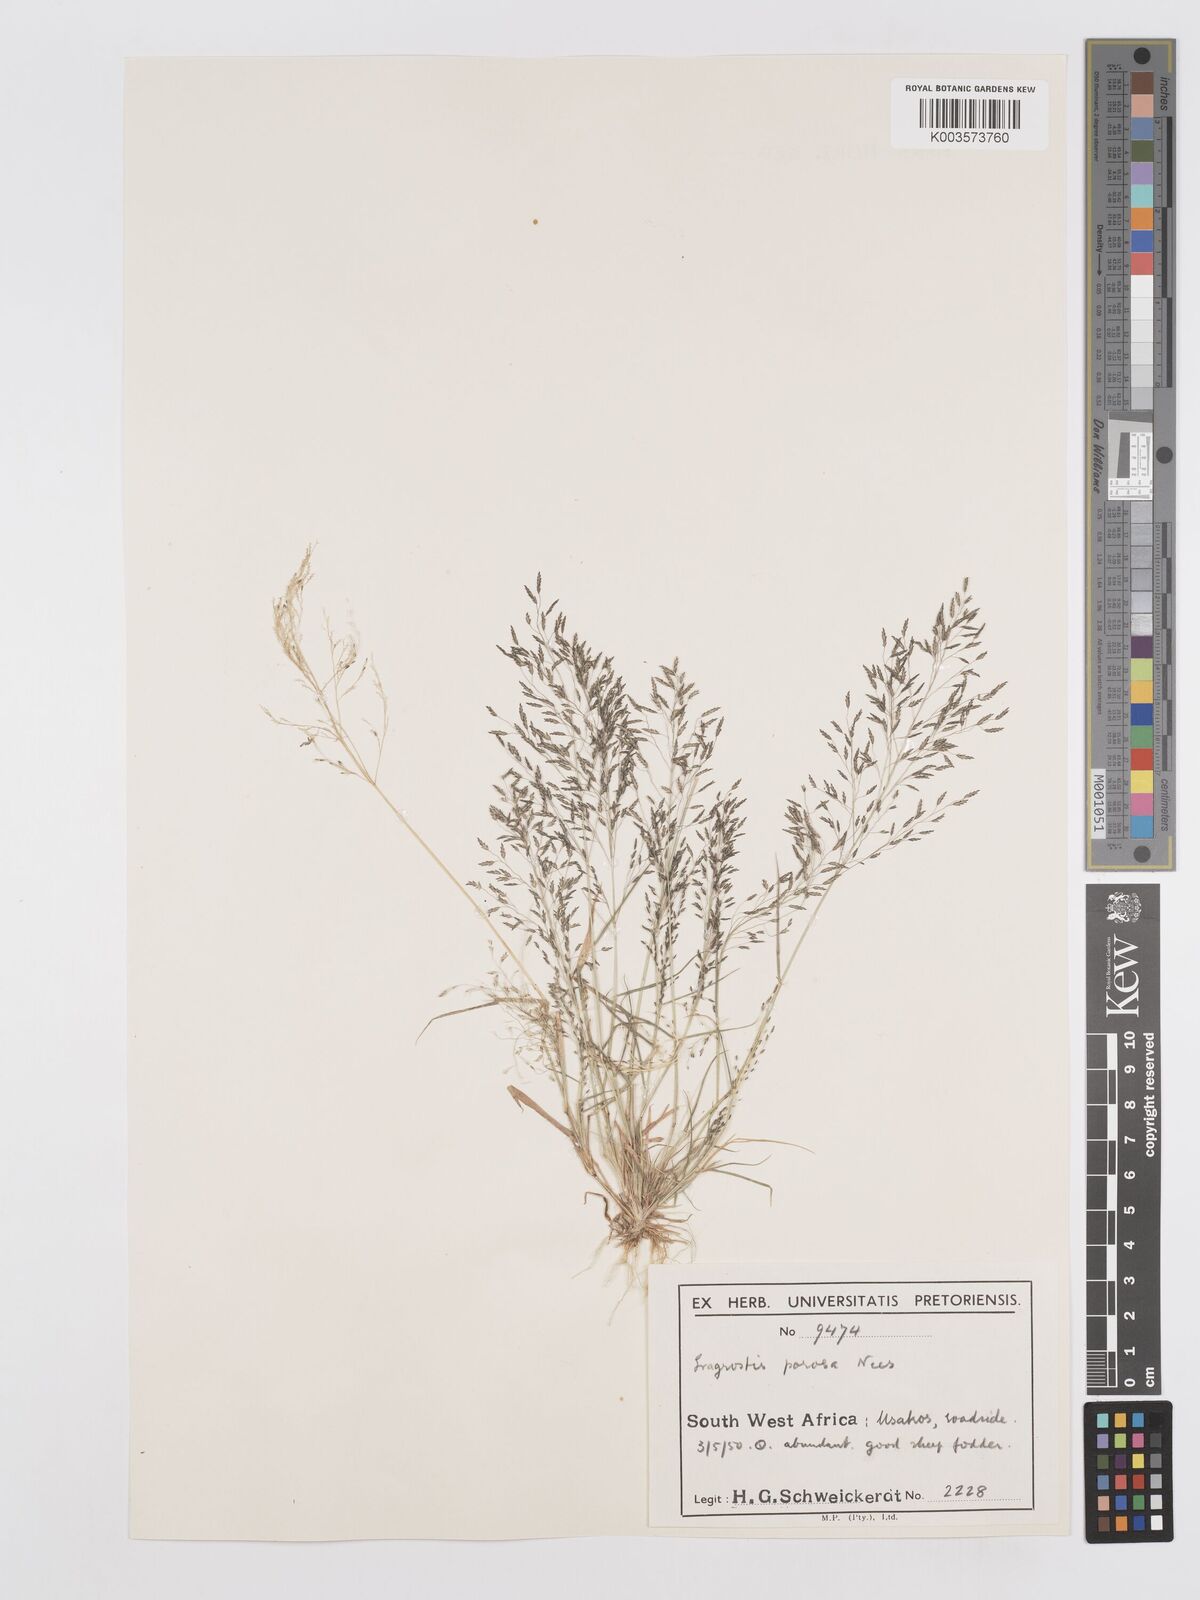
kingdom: Plantae
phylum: Tracheophyta
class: Liliopsida
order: Poales
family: Poaceae
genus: Eragrostis
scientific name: Eragrostis porosa
